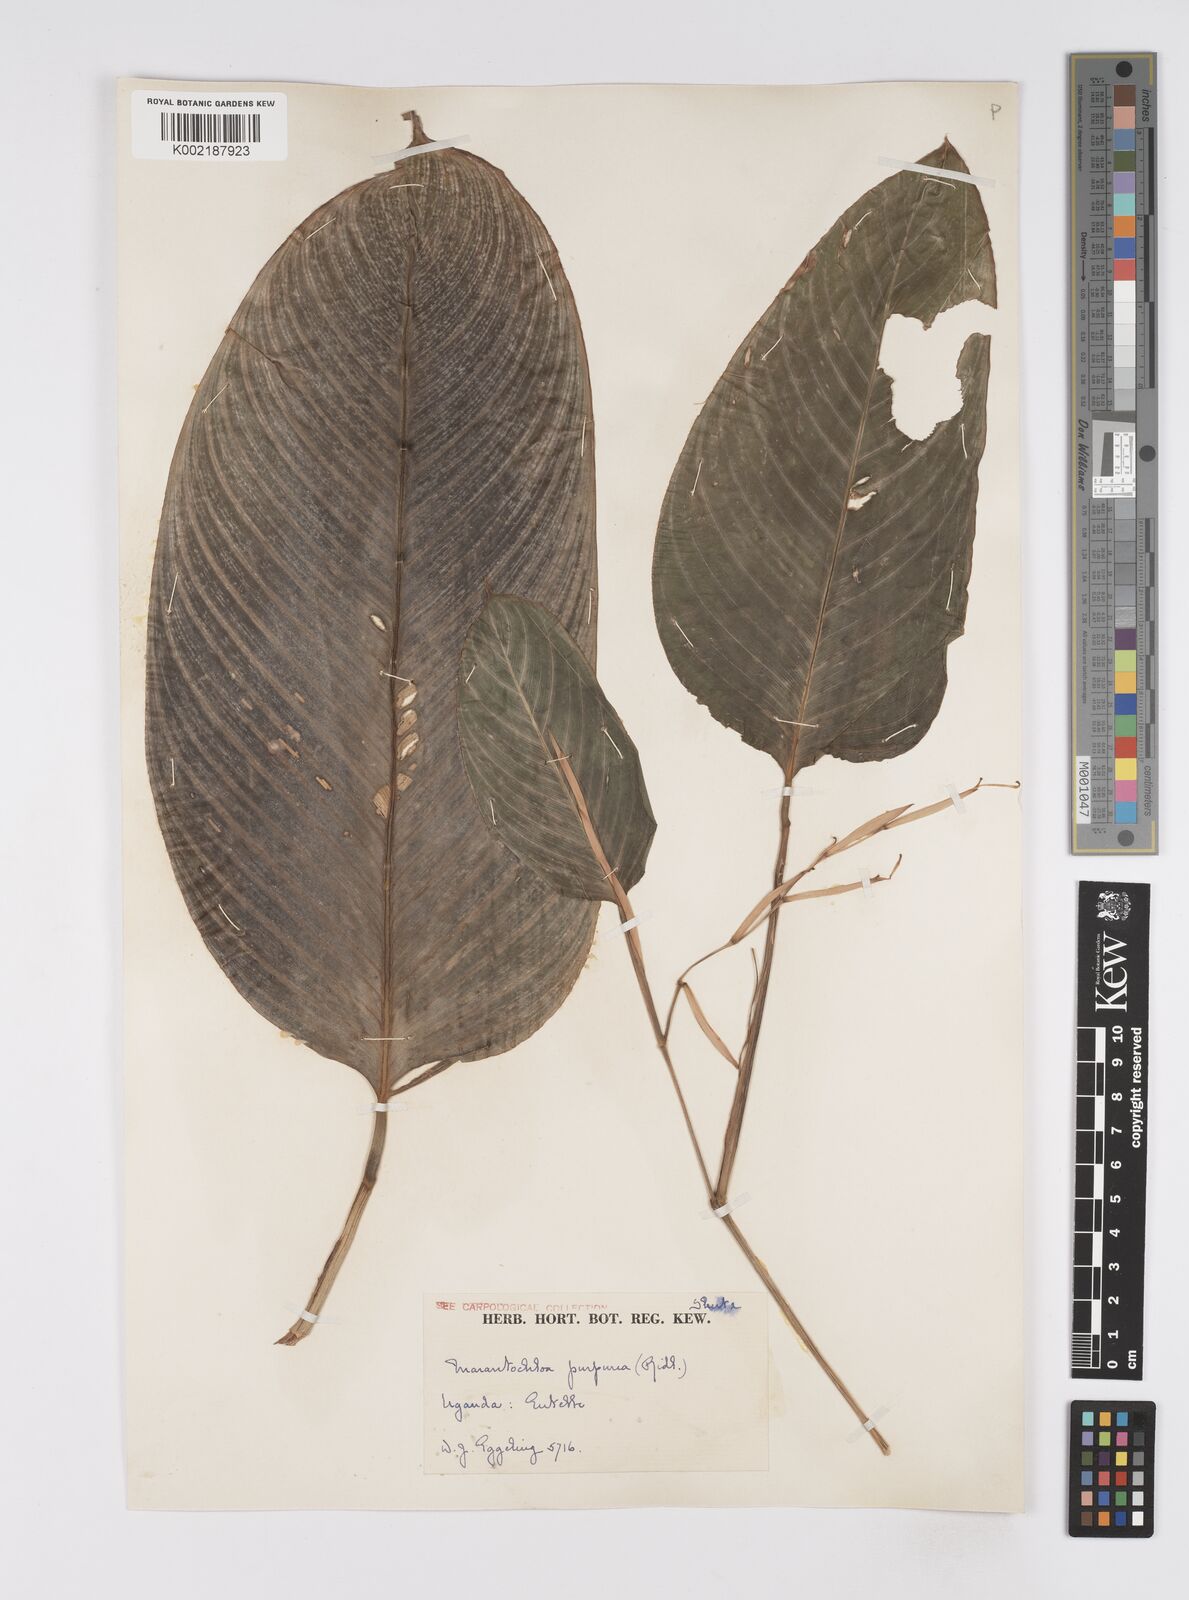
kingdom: Plantae
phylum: Tracheophyta
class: Liliopsida
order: Zingiberales
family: Marantaceae
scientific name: Marantaceae
